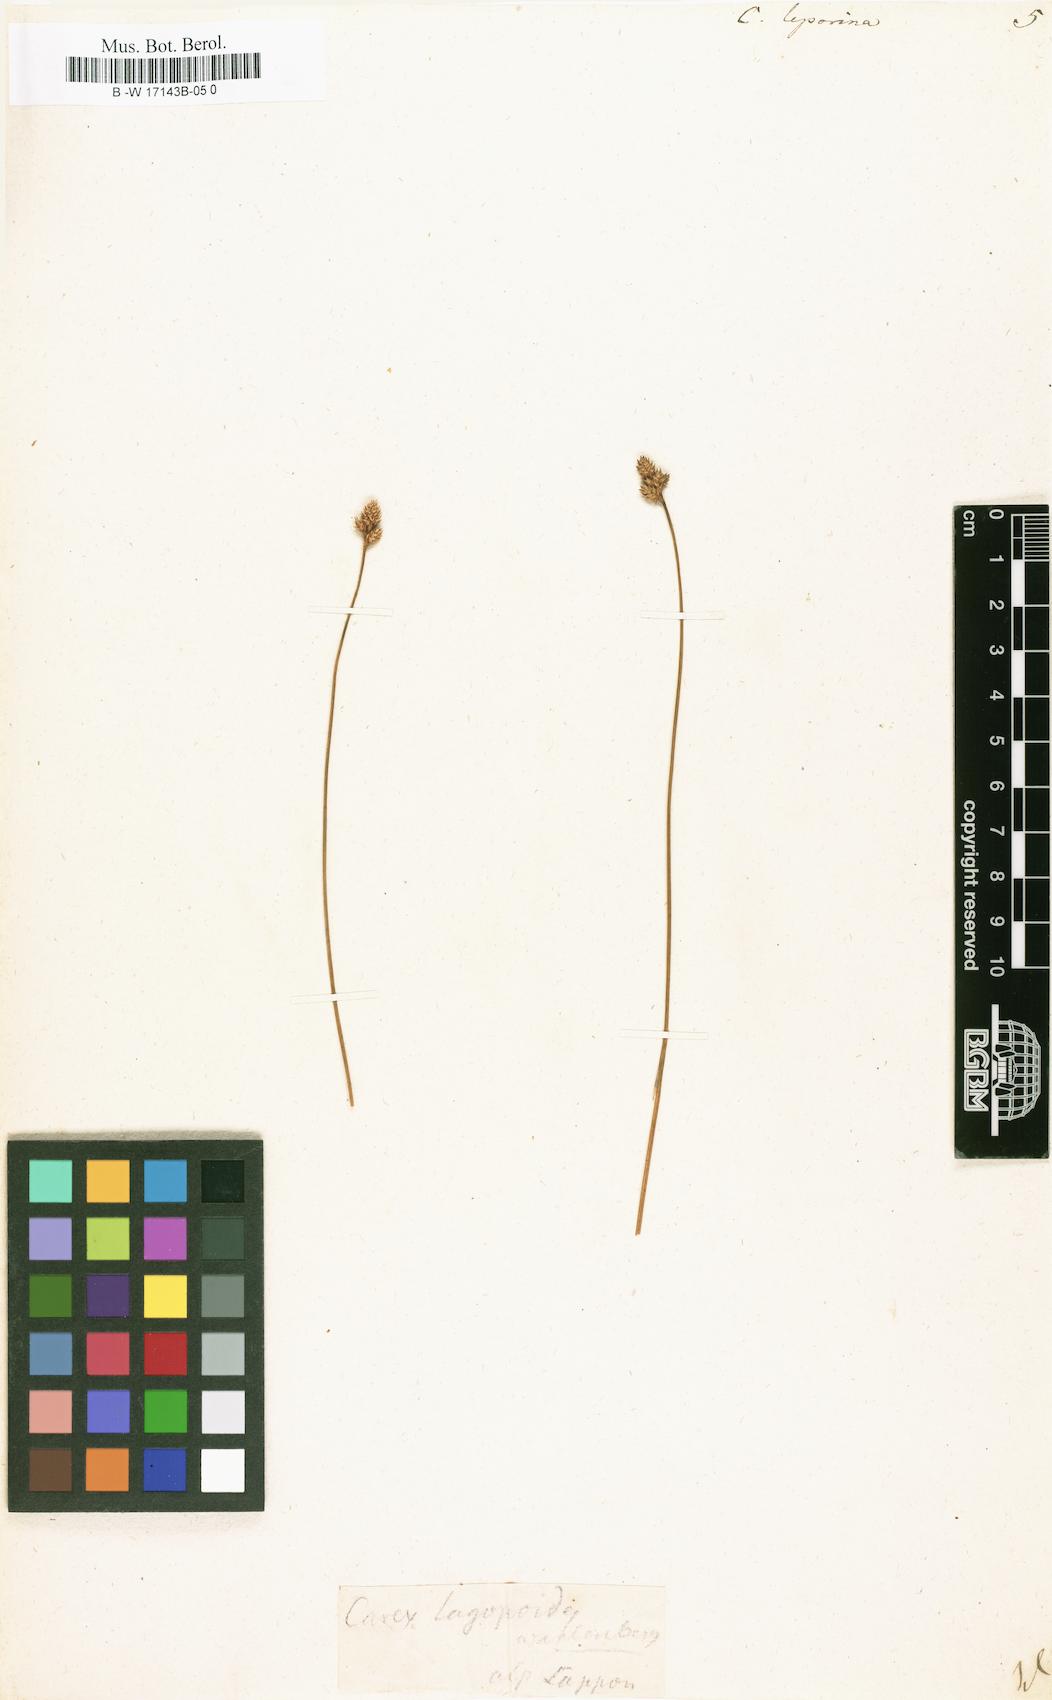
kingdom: Plantae
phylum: Tracheophyta
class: Liliopsida
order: Poales
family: Cyperaceae
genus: Carex
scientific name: Carex leporina
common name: Oval sedge
